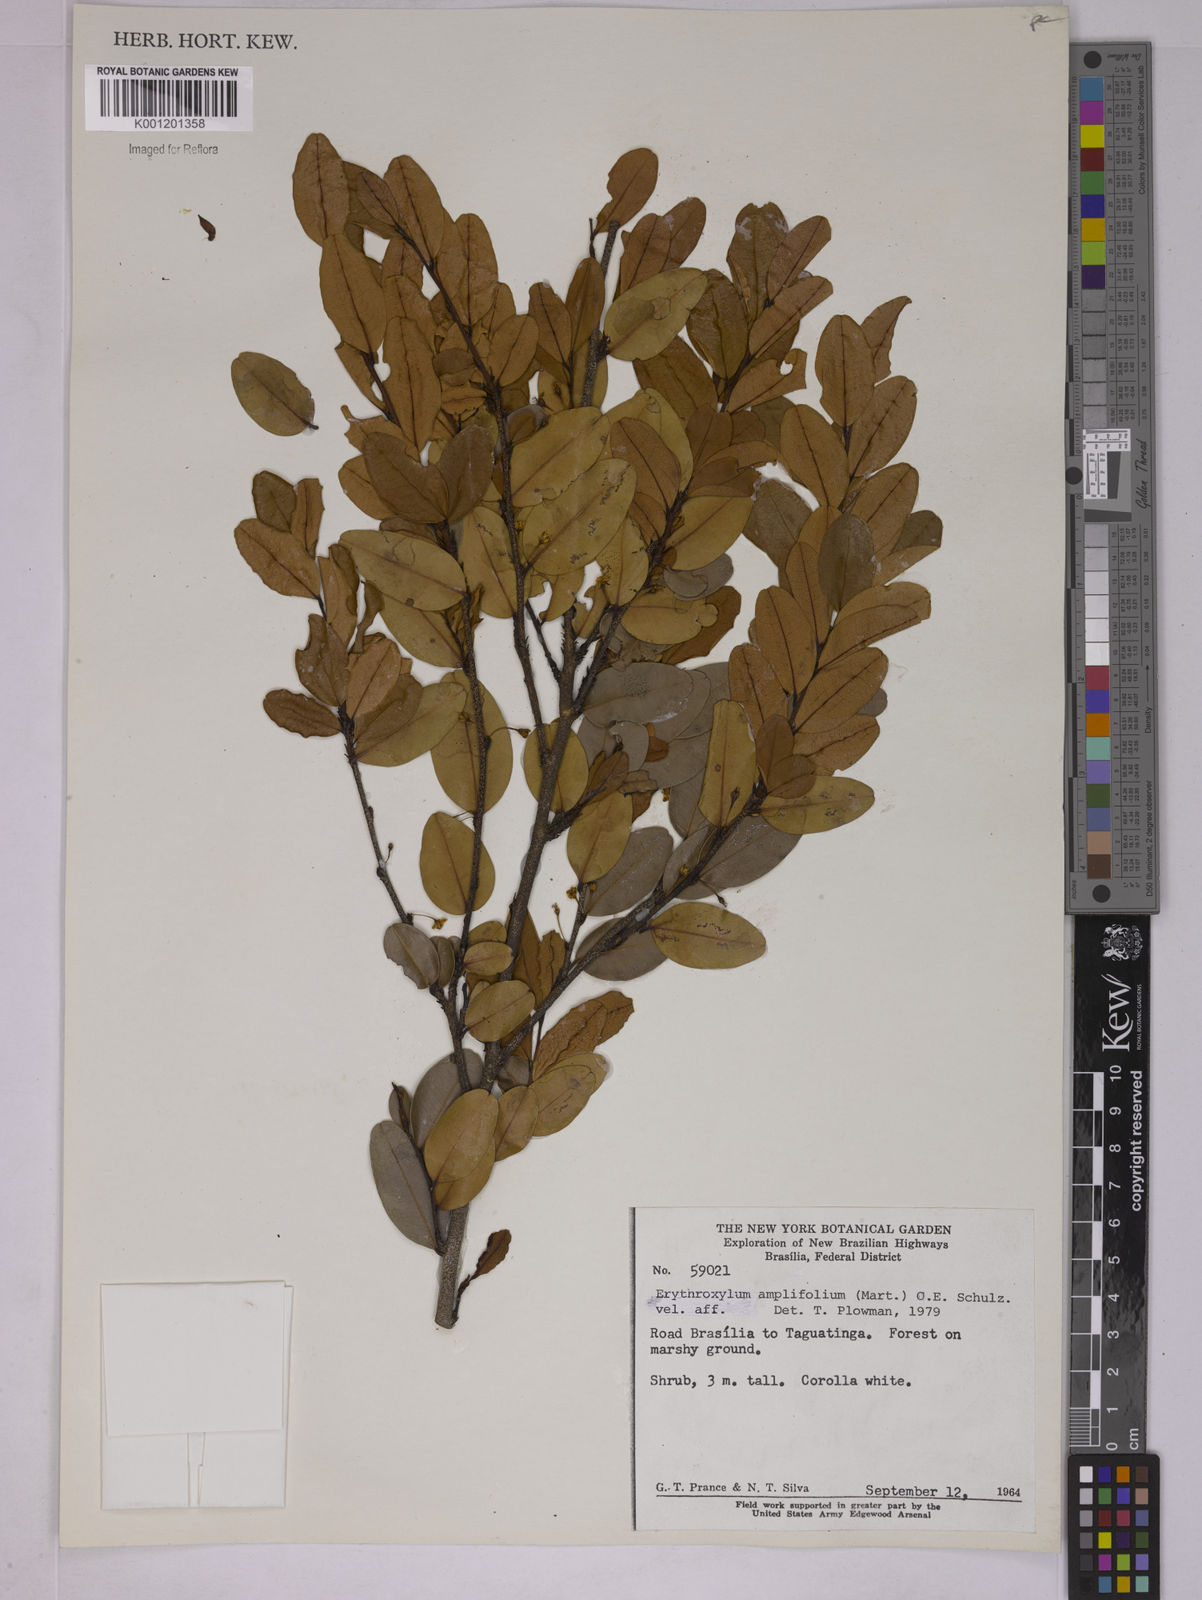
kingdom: Plantae
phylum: Tracheophyta
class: Magnoliopsida
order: Malpighiales
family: Erythroxylaceae
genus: Erythroxylum
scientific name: Erythroxylum
